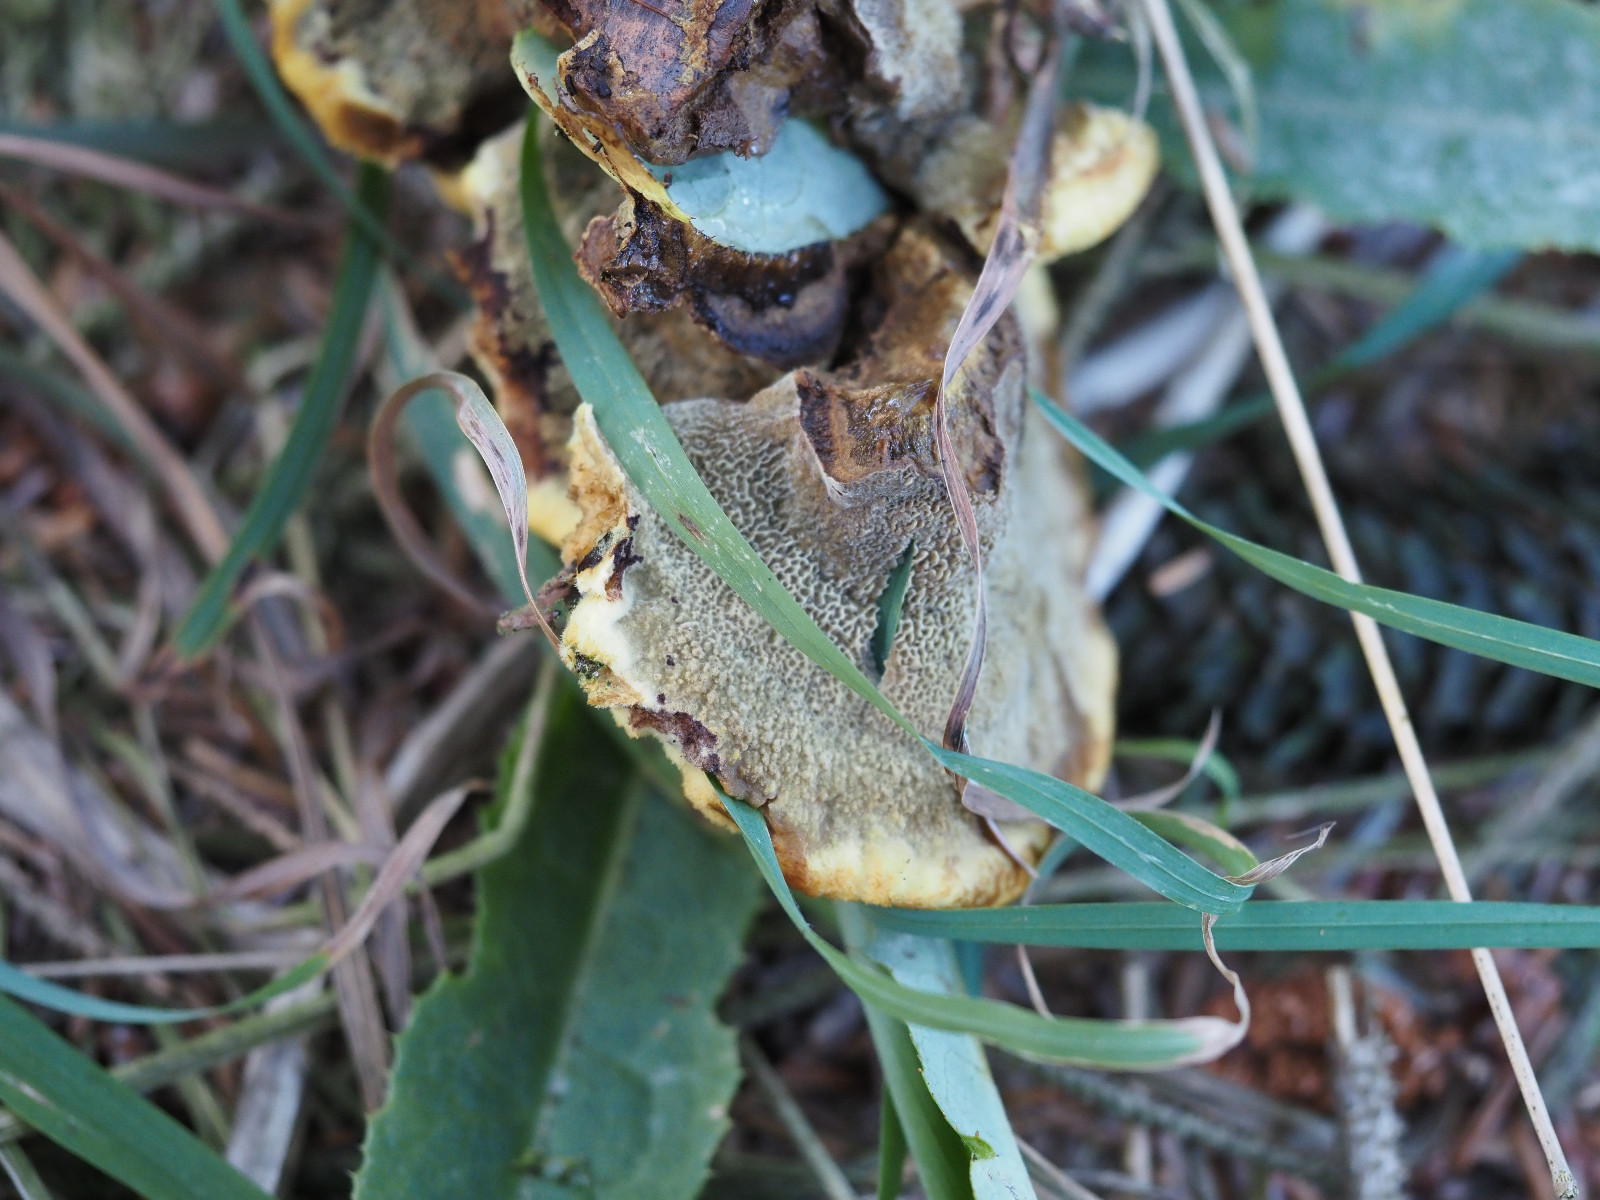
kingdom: Fungi
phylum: Basidiomycota
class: Agaricomycetes
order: Polyporales
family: Laetiporaceae
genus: Phaeolus
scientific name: Phaeolus schweinitzii
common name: brunporesvamp
